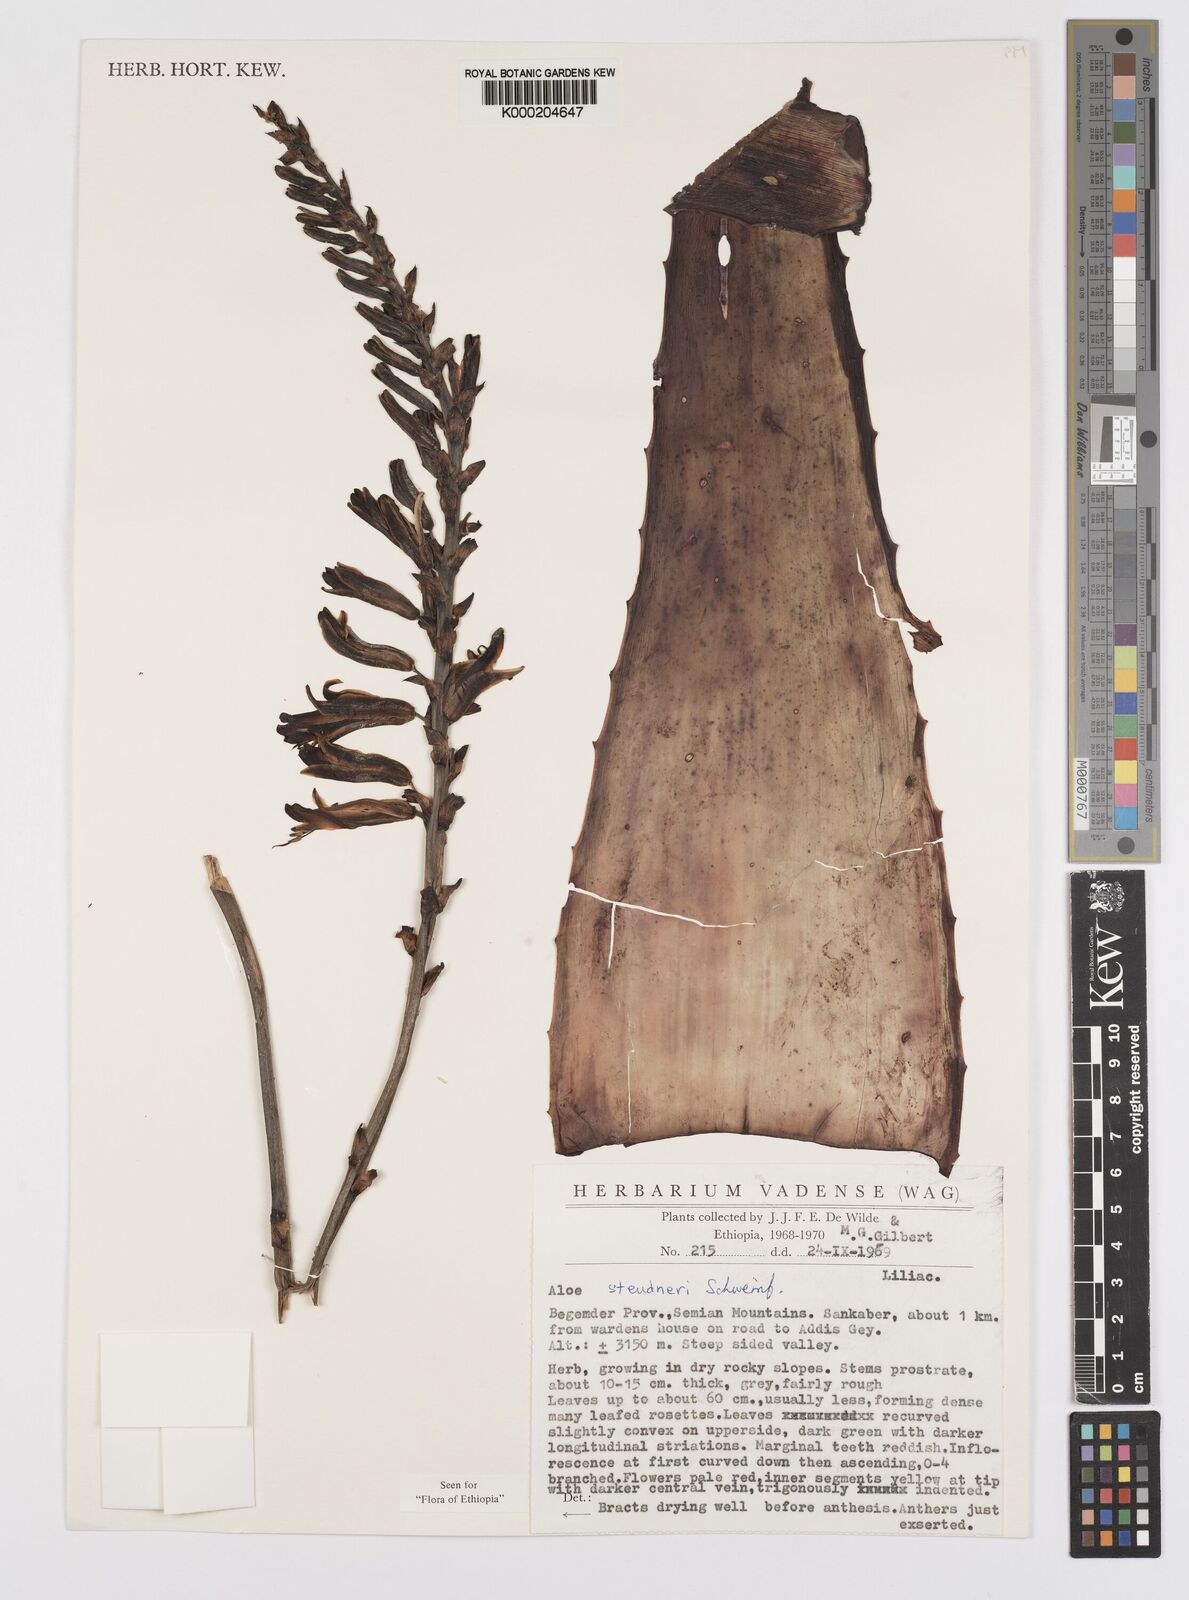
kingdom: Plantae
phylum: Tracheophyta
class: Liliopsida
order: Asparagales
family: Asphodelaceae
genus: Aloe
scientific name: Aloe steudneri
